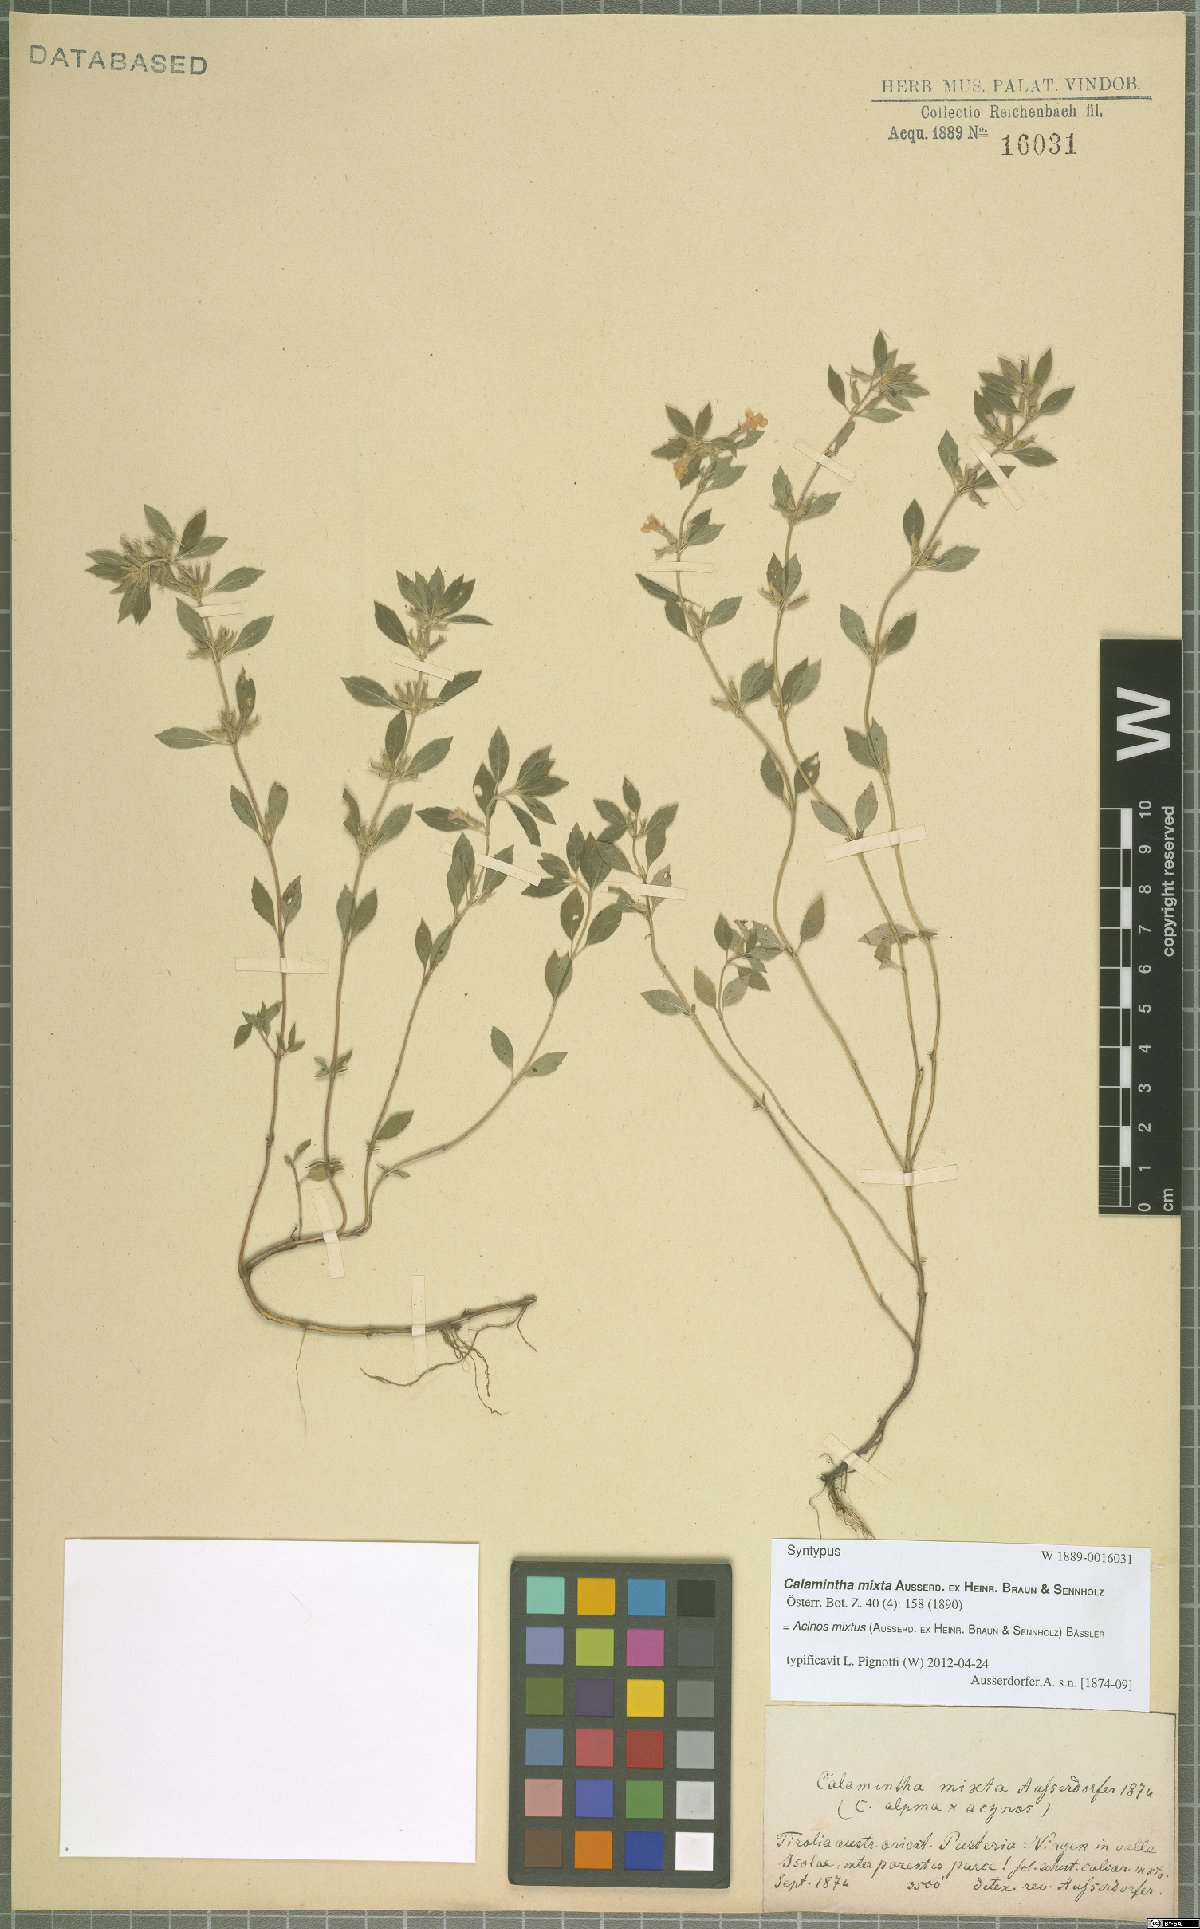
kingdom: Plantae
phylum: Tracheophyta
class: Magnoliopsida
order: Lamiales
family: Lamiaceae
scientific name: Lamiaceae
